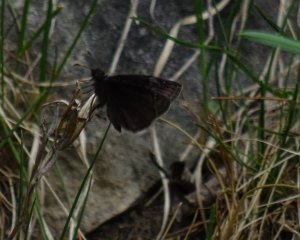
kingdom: Animalia
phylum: Arthropoda
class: Insecta
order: Lepidoptera
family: Hesperiidae
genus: Gesta
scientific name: Gesta
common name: Wild Indigo Duskywing
